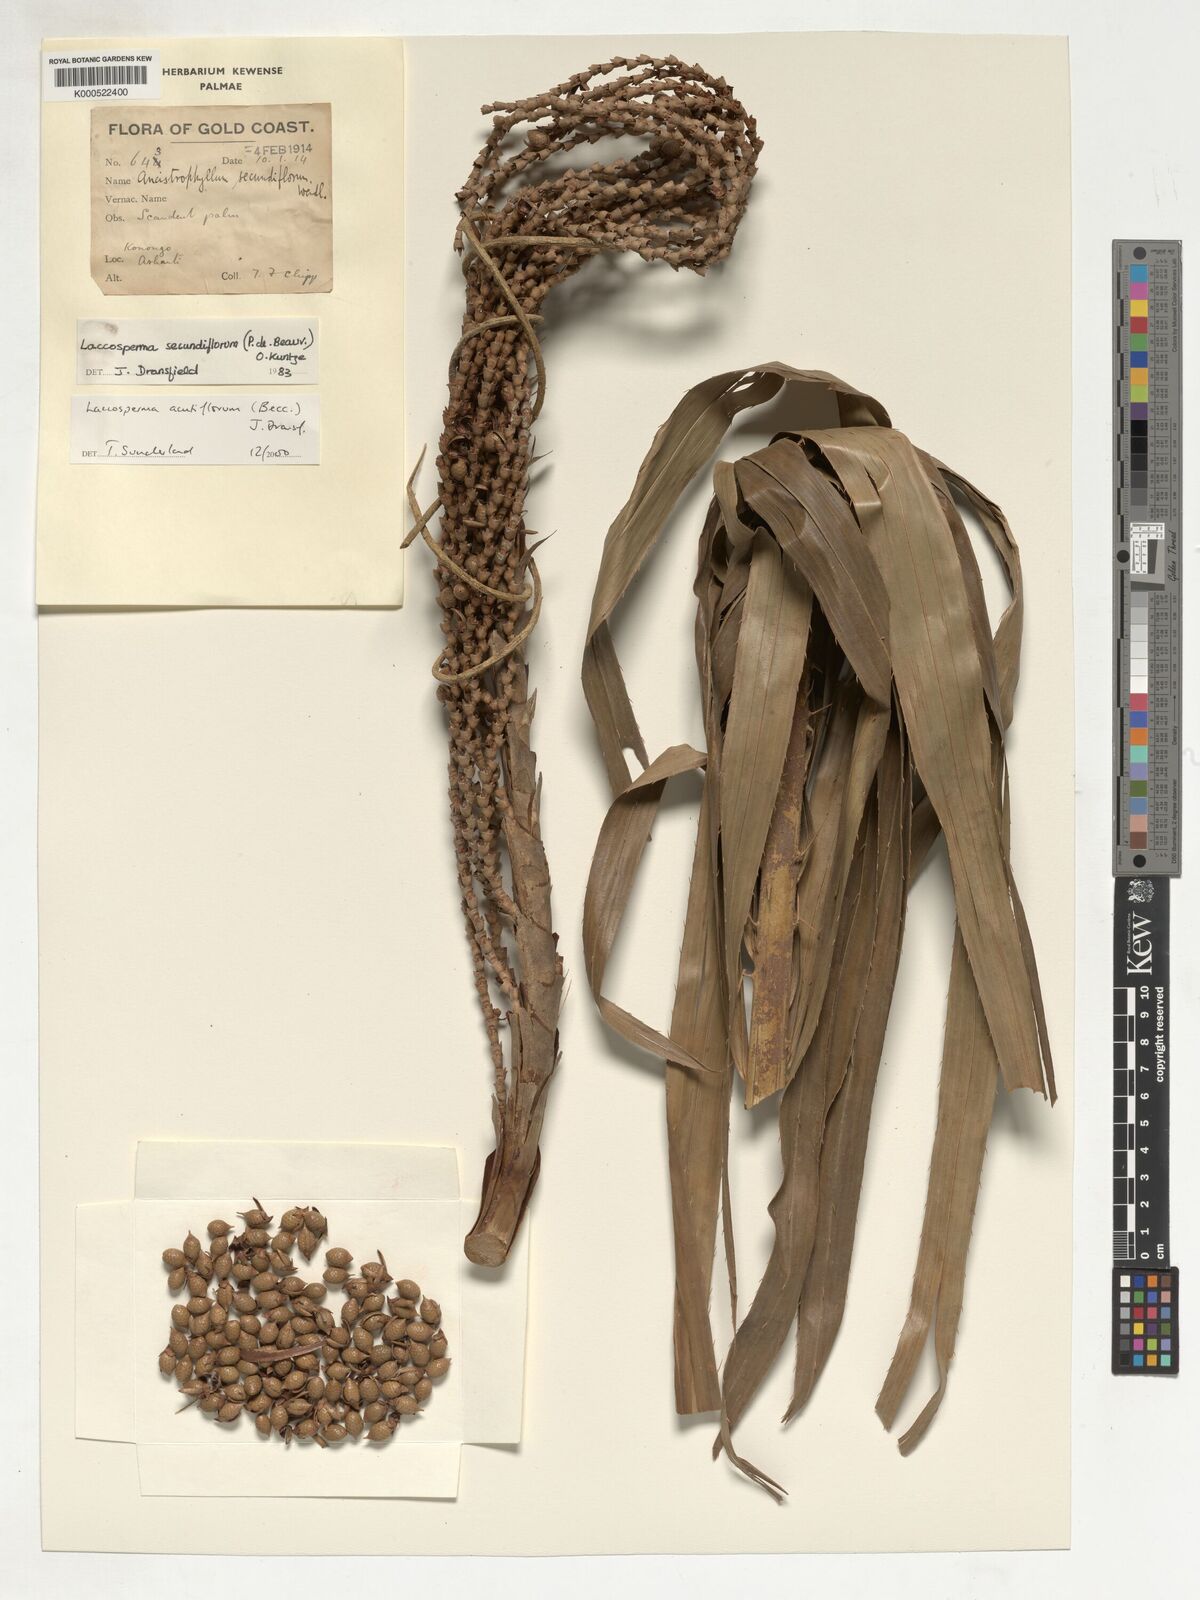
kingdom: Plantae
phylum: Tracheophyta
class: Liliopsida
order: Arecales
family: Arecaceae
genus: Laccosperma
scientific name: Laccosperma acutiflorum
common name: Rattan
